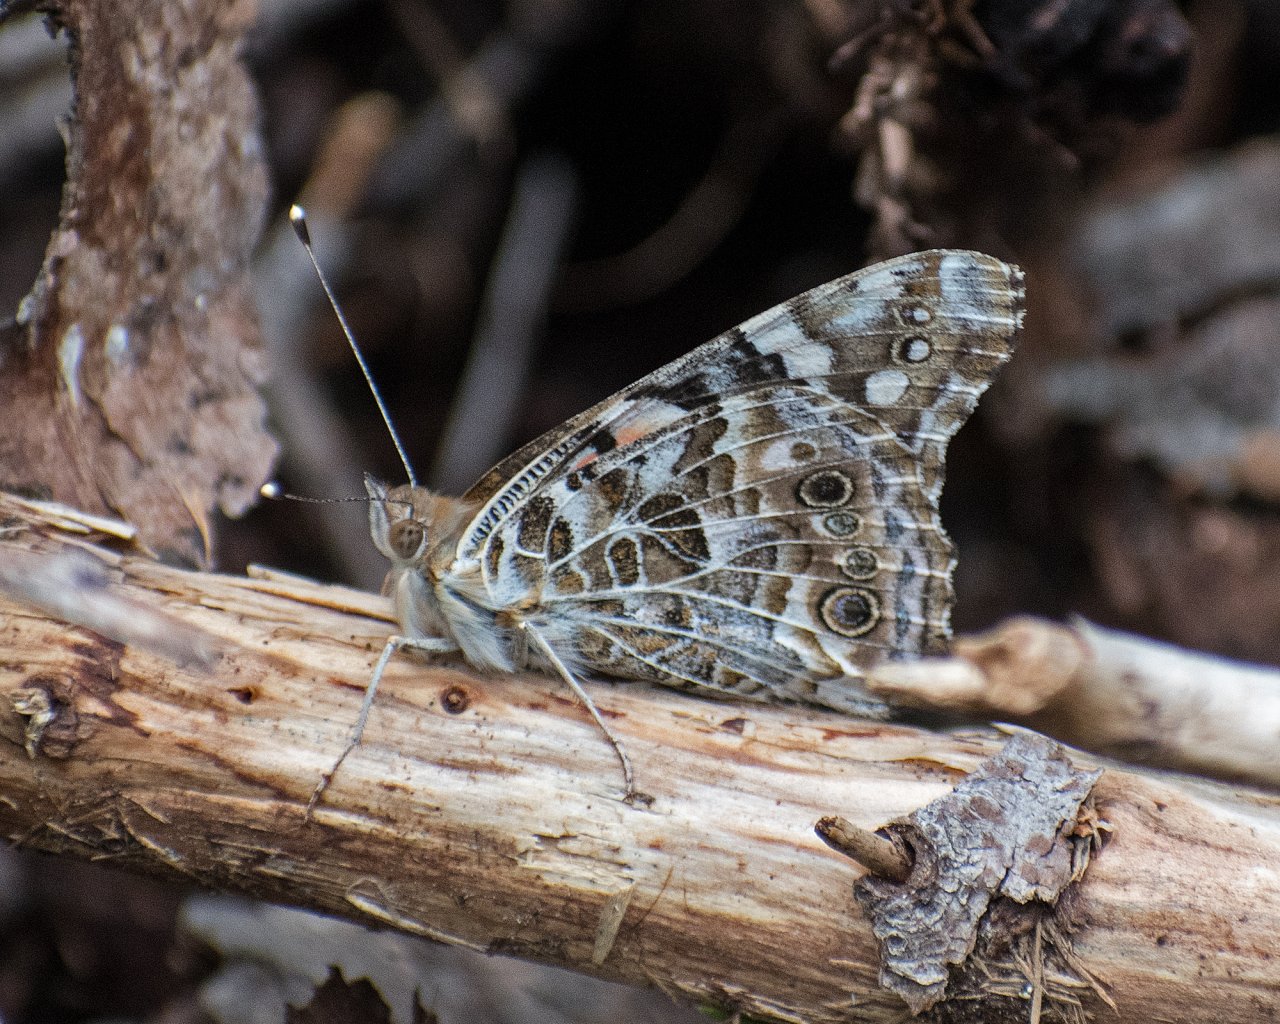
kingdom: Animalia
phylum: Arthropoda
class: Insecta
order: Lepidoptera
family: Nymphalidae
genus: Vanessa
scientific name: Vanessa cardui
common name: Painted Lady
